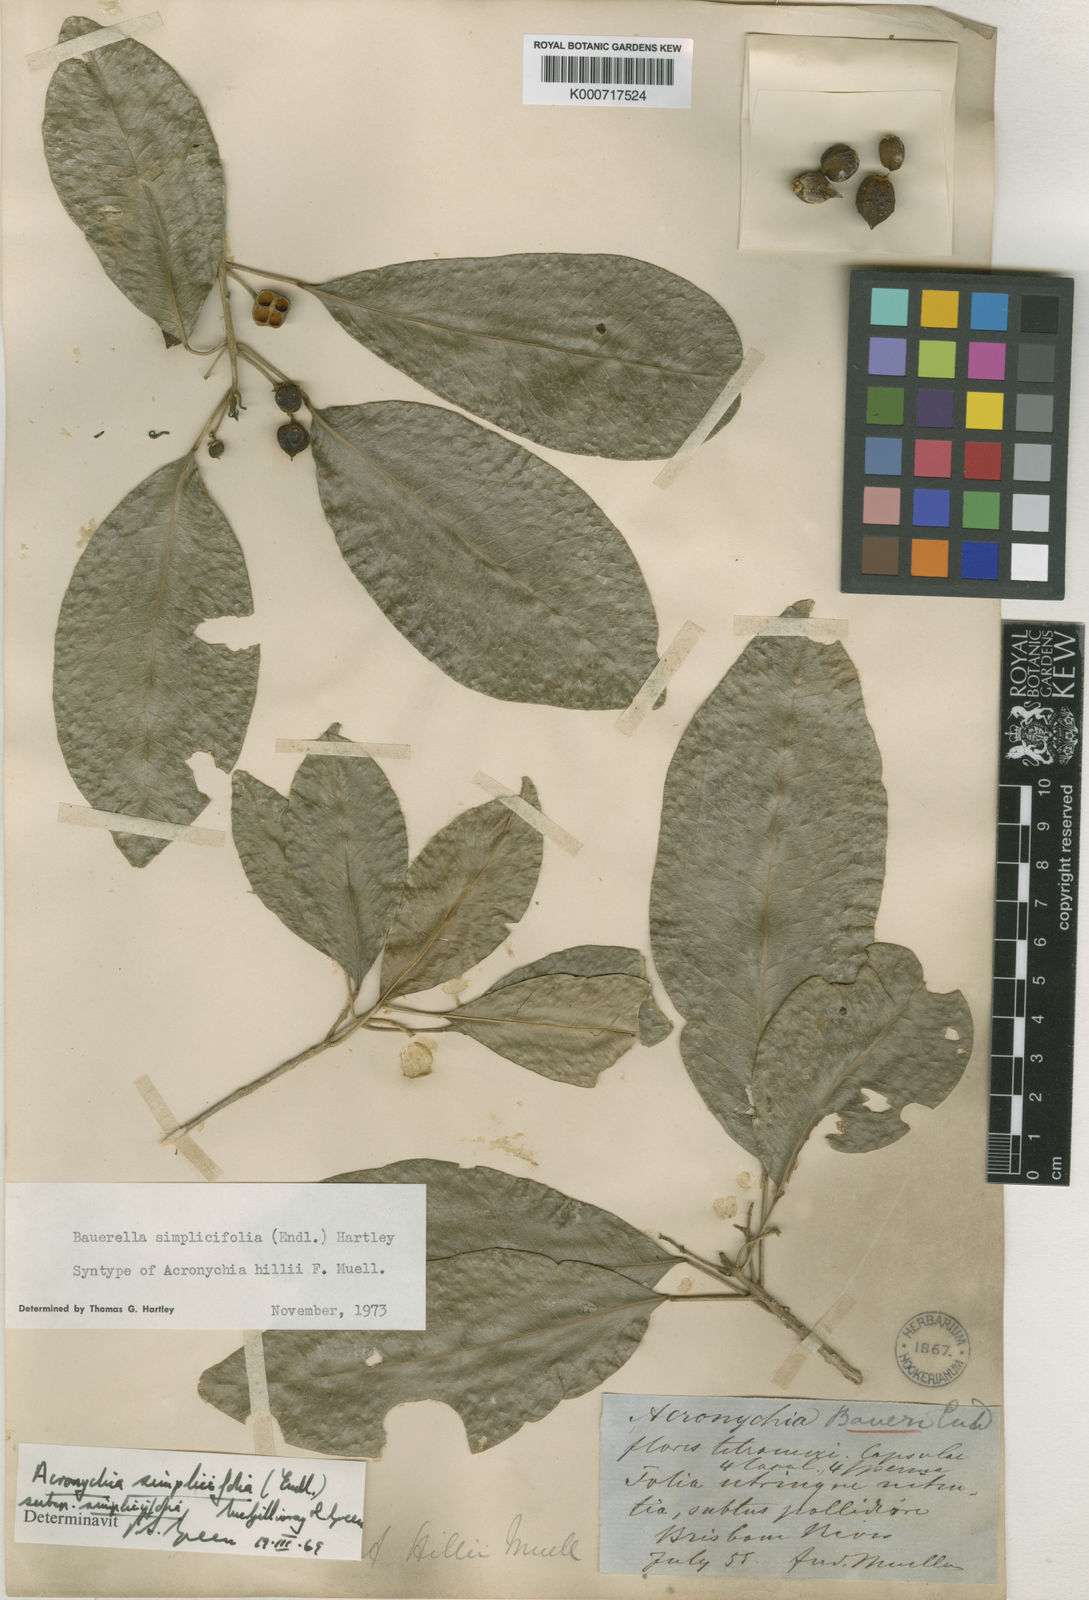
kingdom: Plantae
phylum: Tracheophyta
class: Magnoliopsida
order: Sapindales
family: Rutaceae
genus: Sarcomelicope
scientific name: Sarcomelicope simplicifolia
